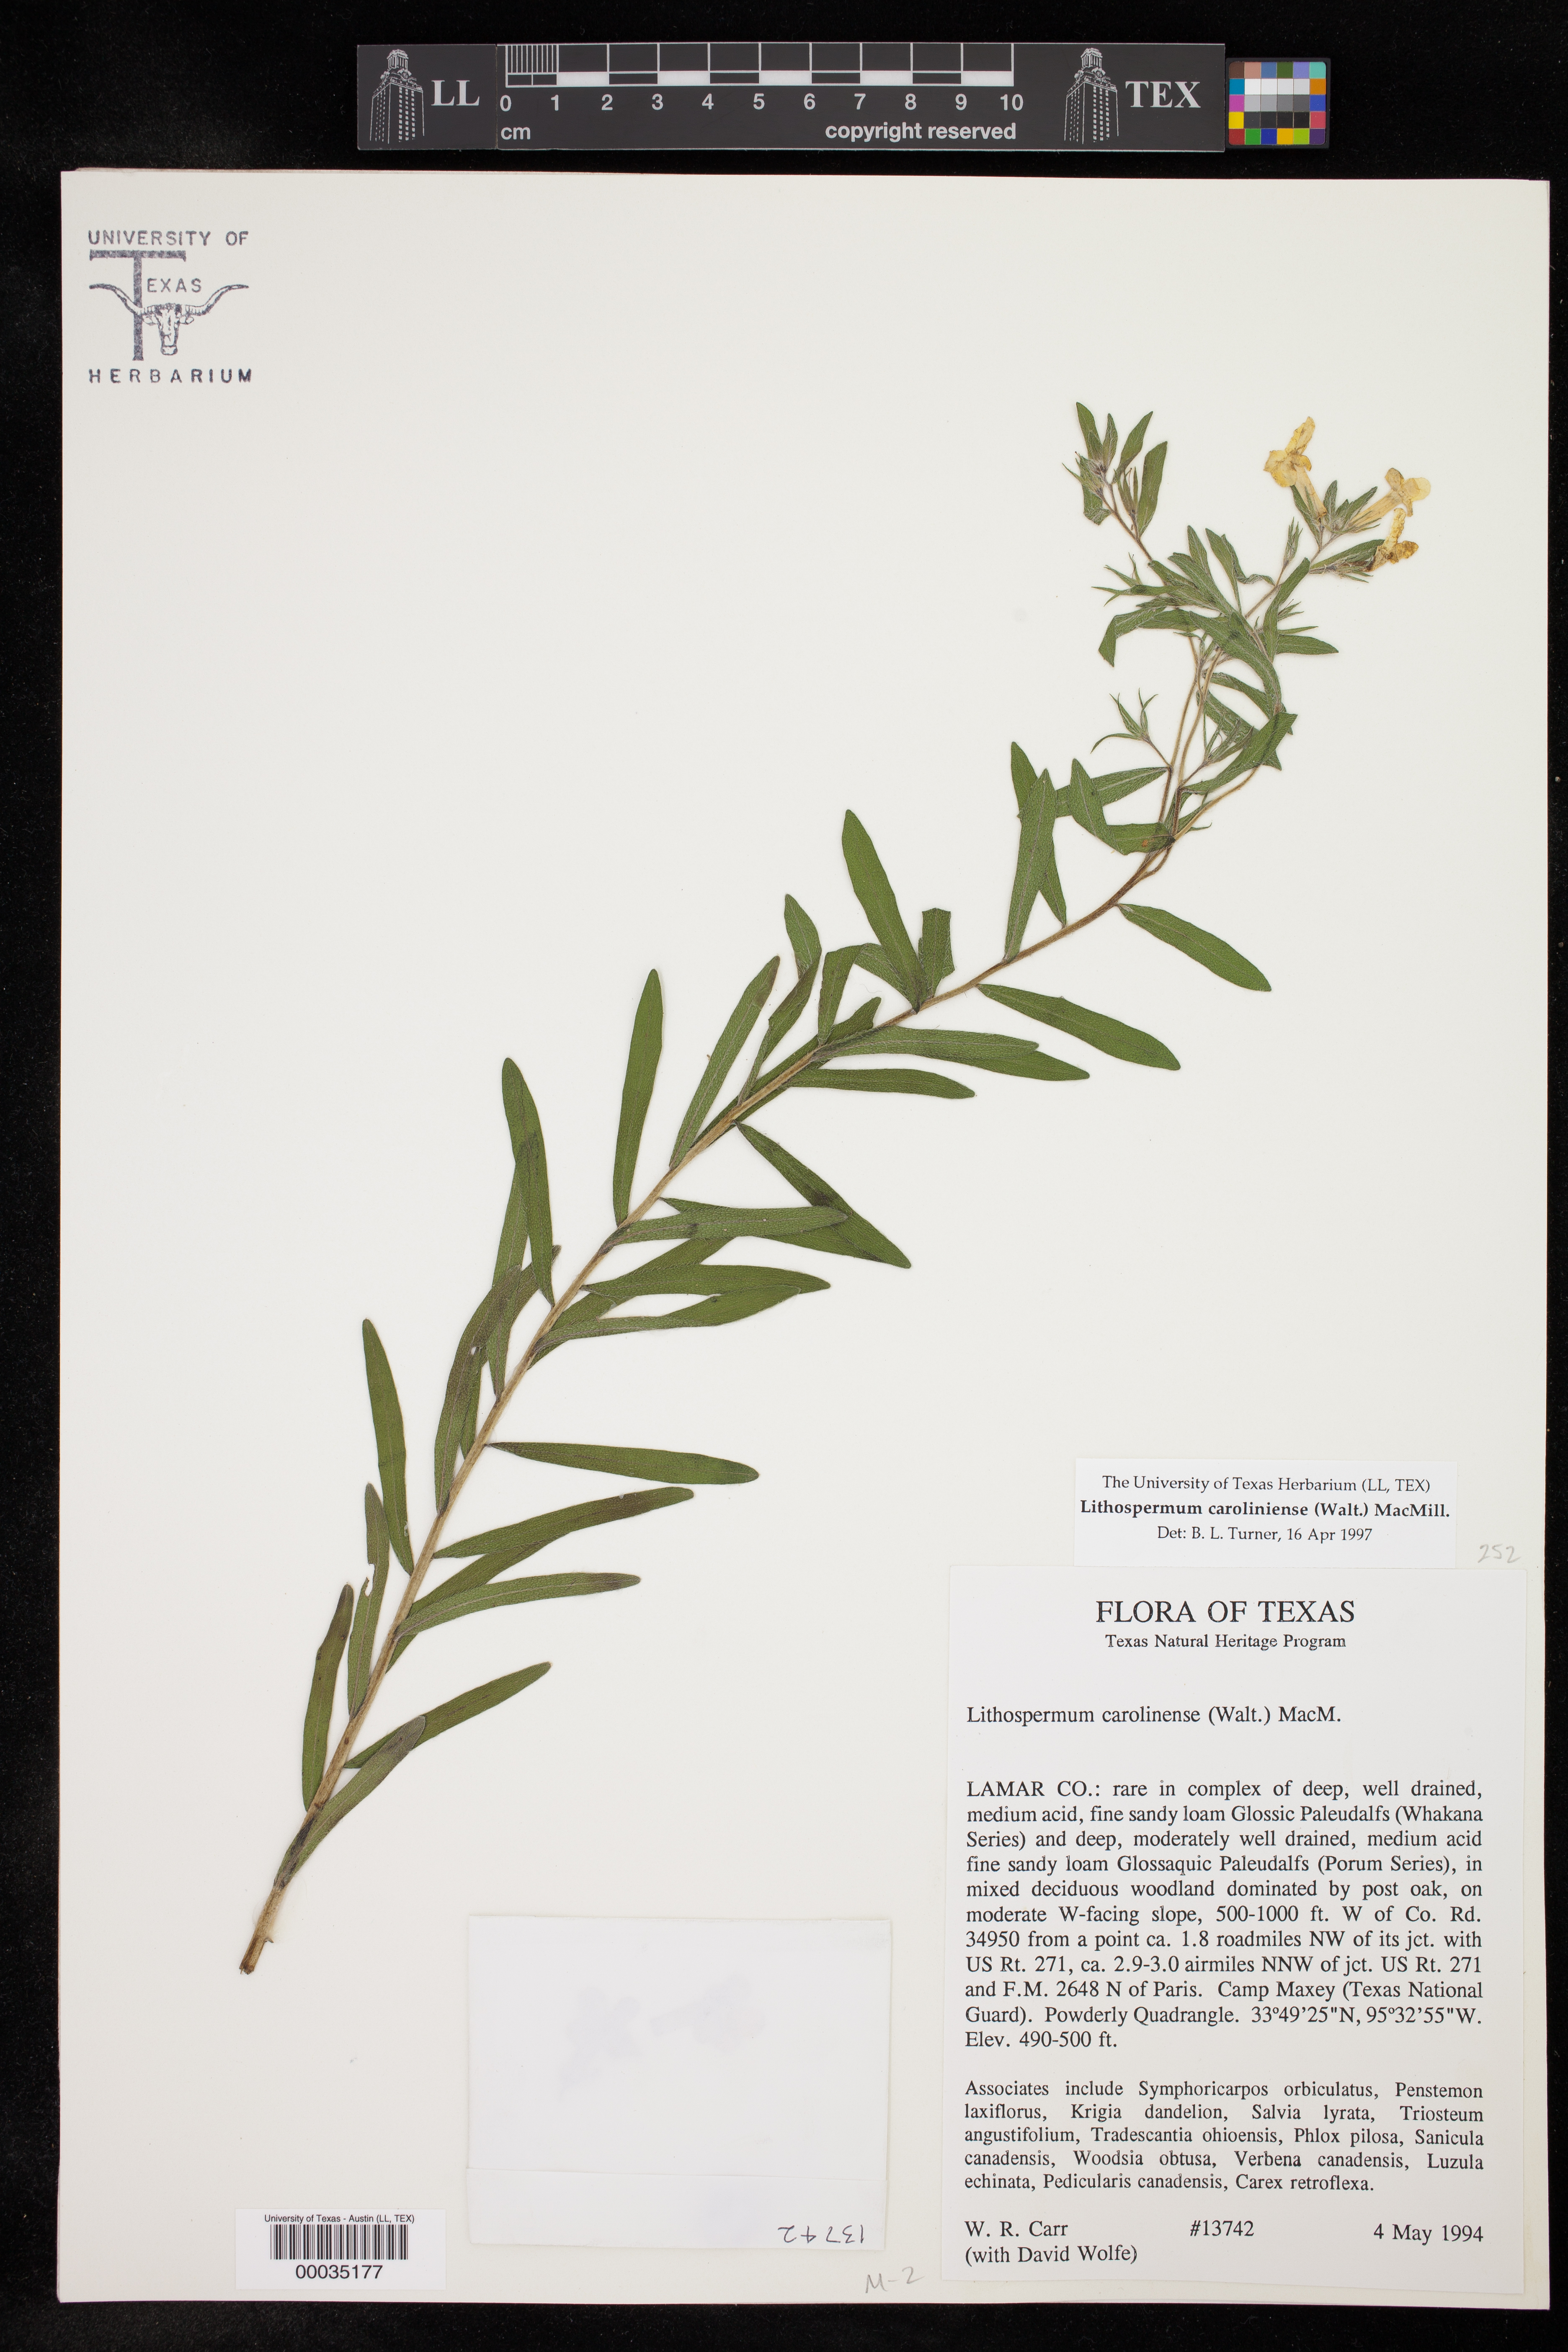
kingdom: Plantae
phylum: Tracheophyta
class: Magnoliopsida
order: Boraginales
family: Boraginaceae
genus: Lithospermum
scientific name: Lithospermum caroliniense
